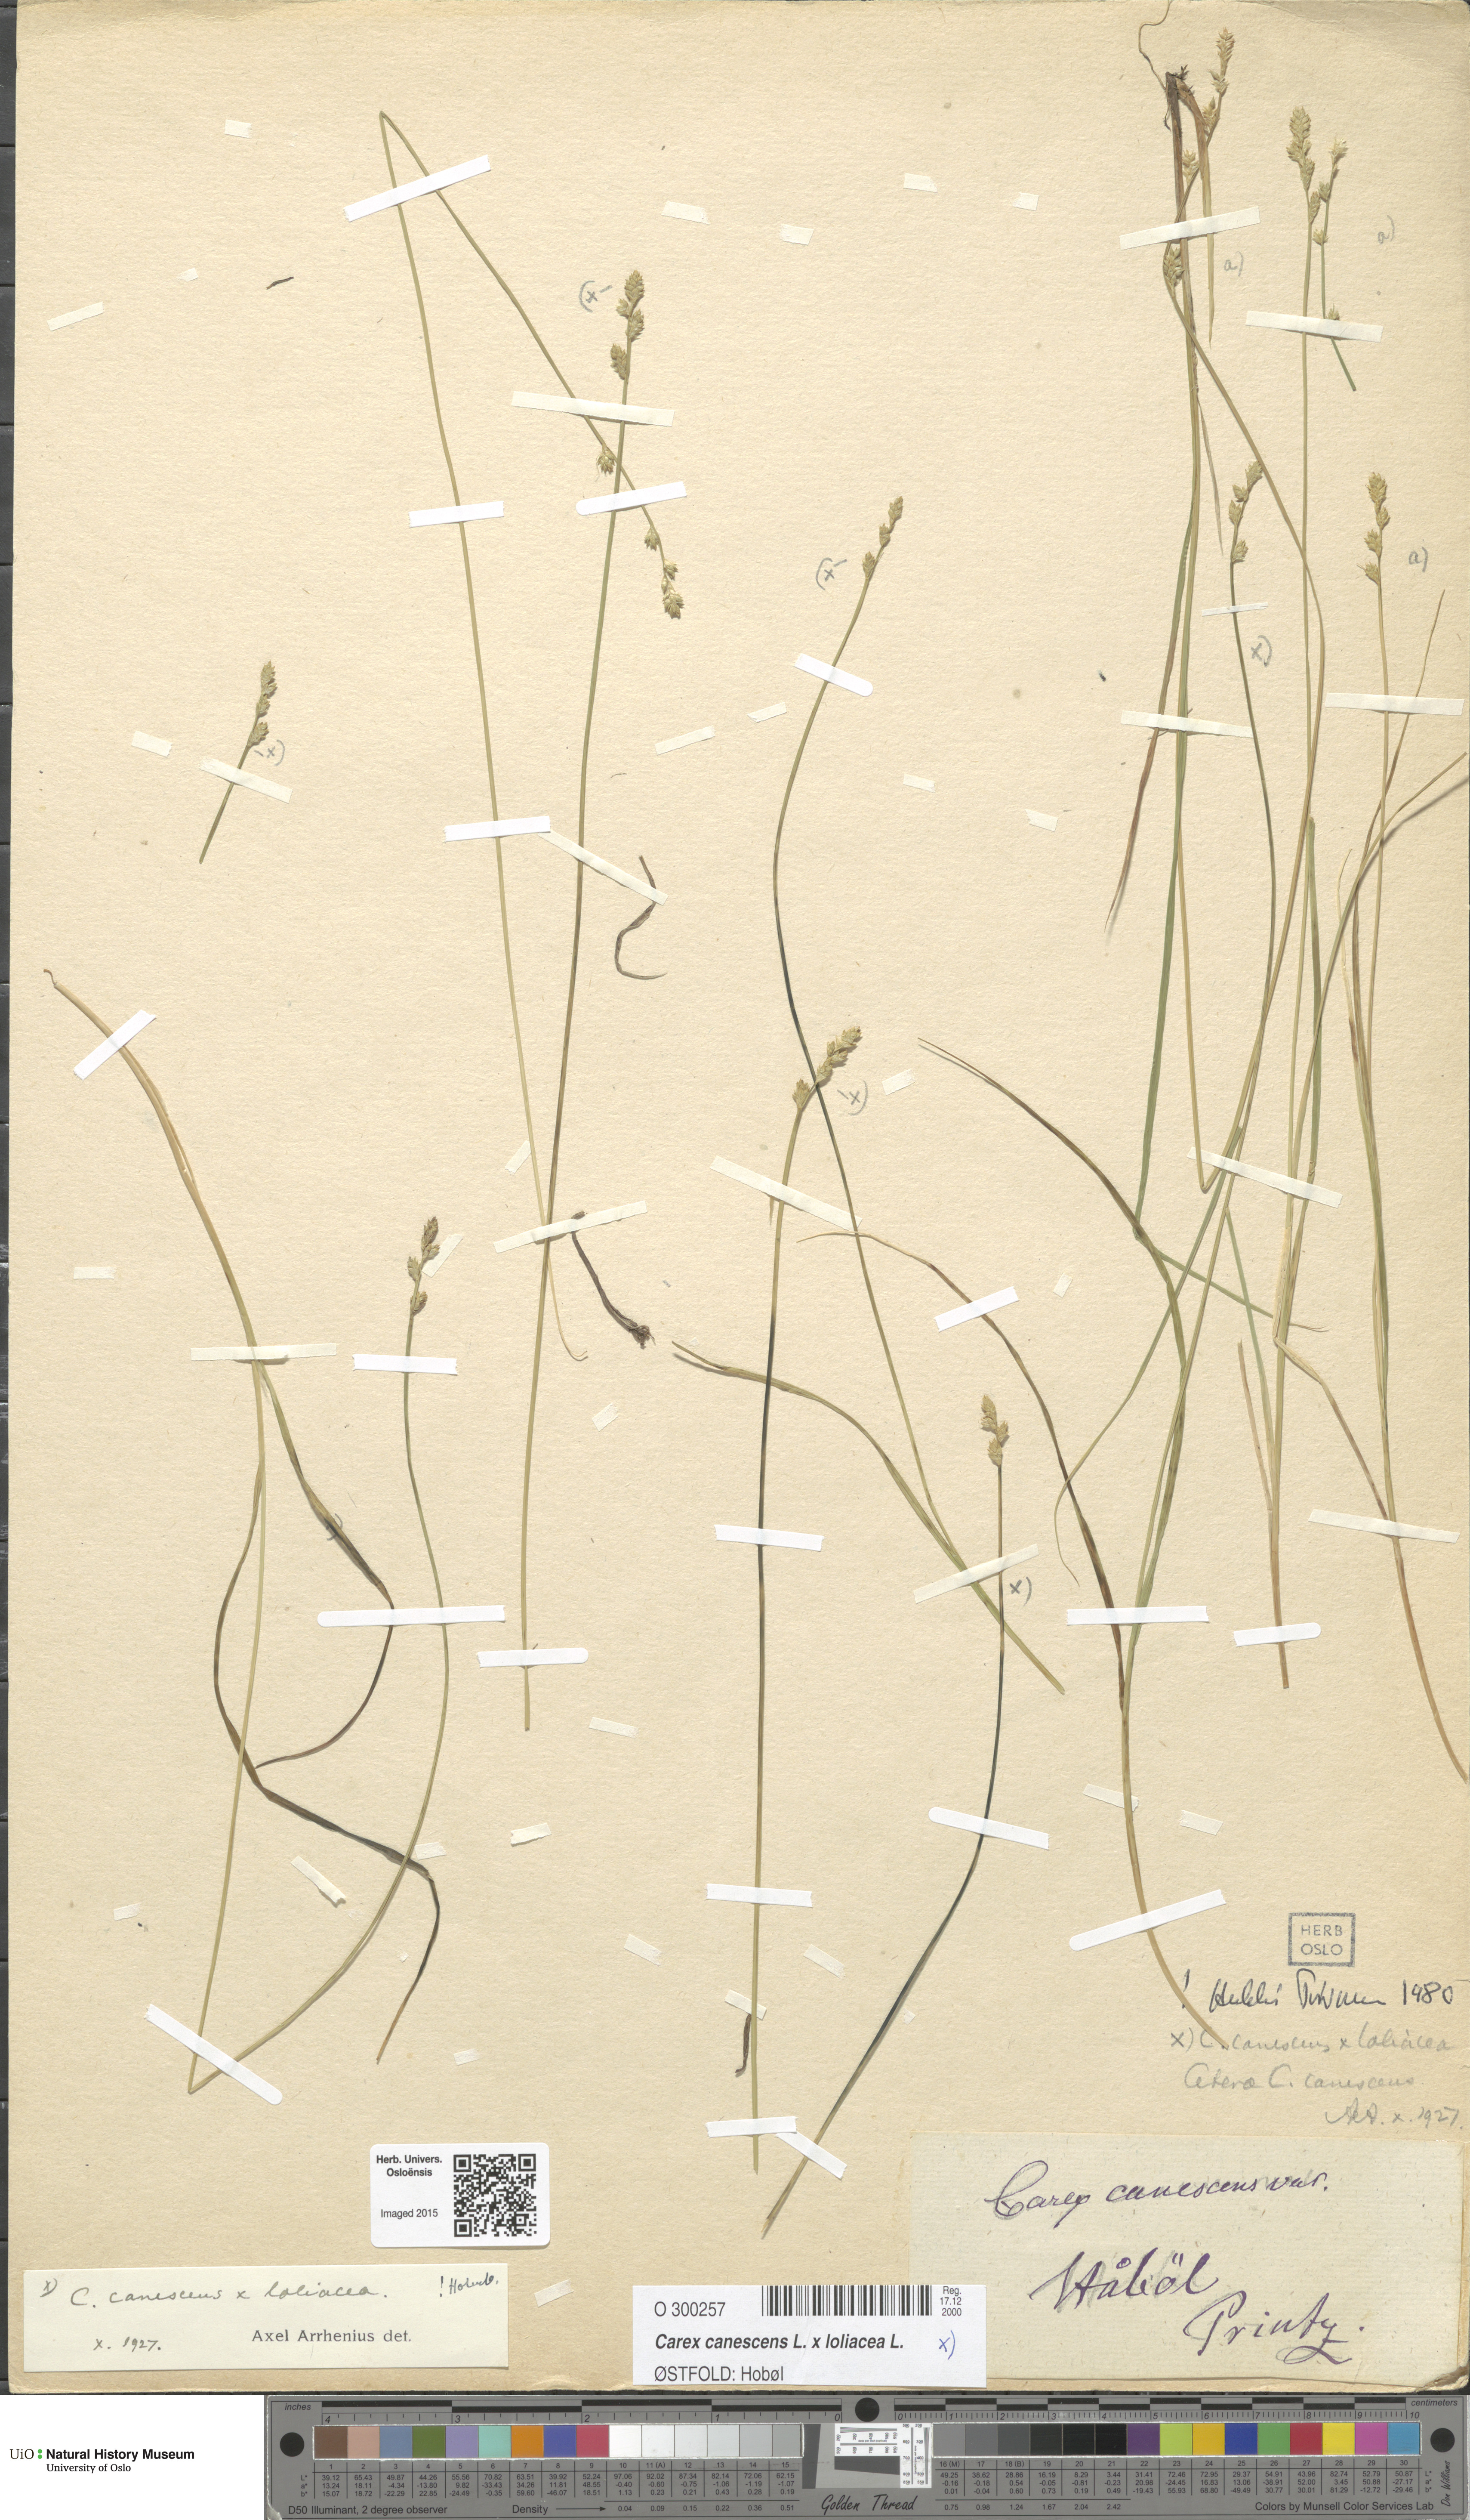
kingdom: Plantae
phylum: Tracheophyta
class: Liliopsida
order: Poales
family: Cyperaceae
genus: Carex
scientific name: Carex
